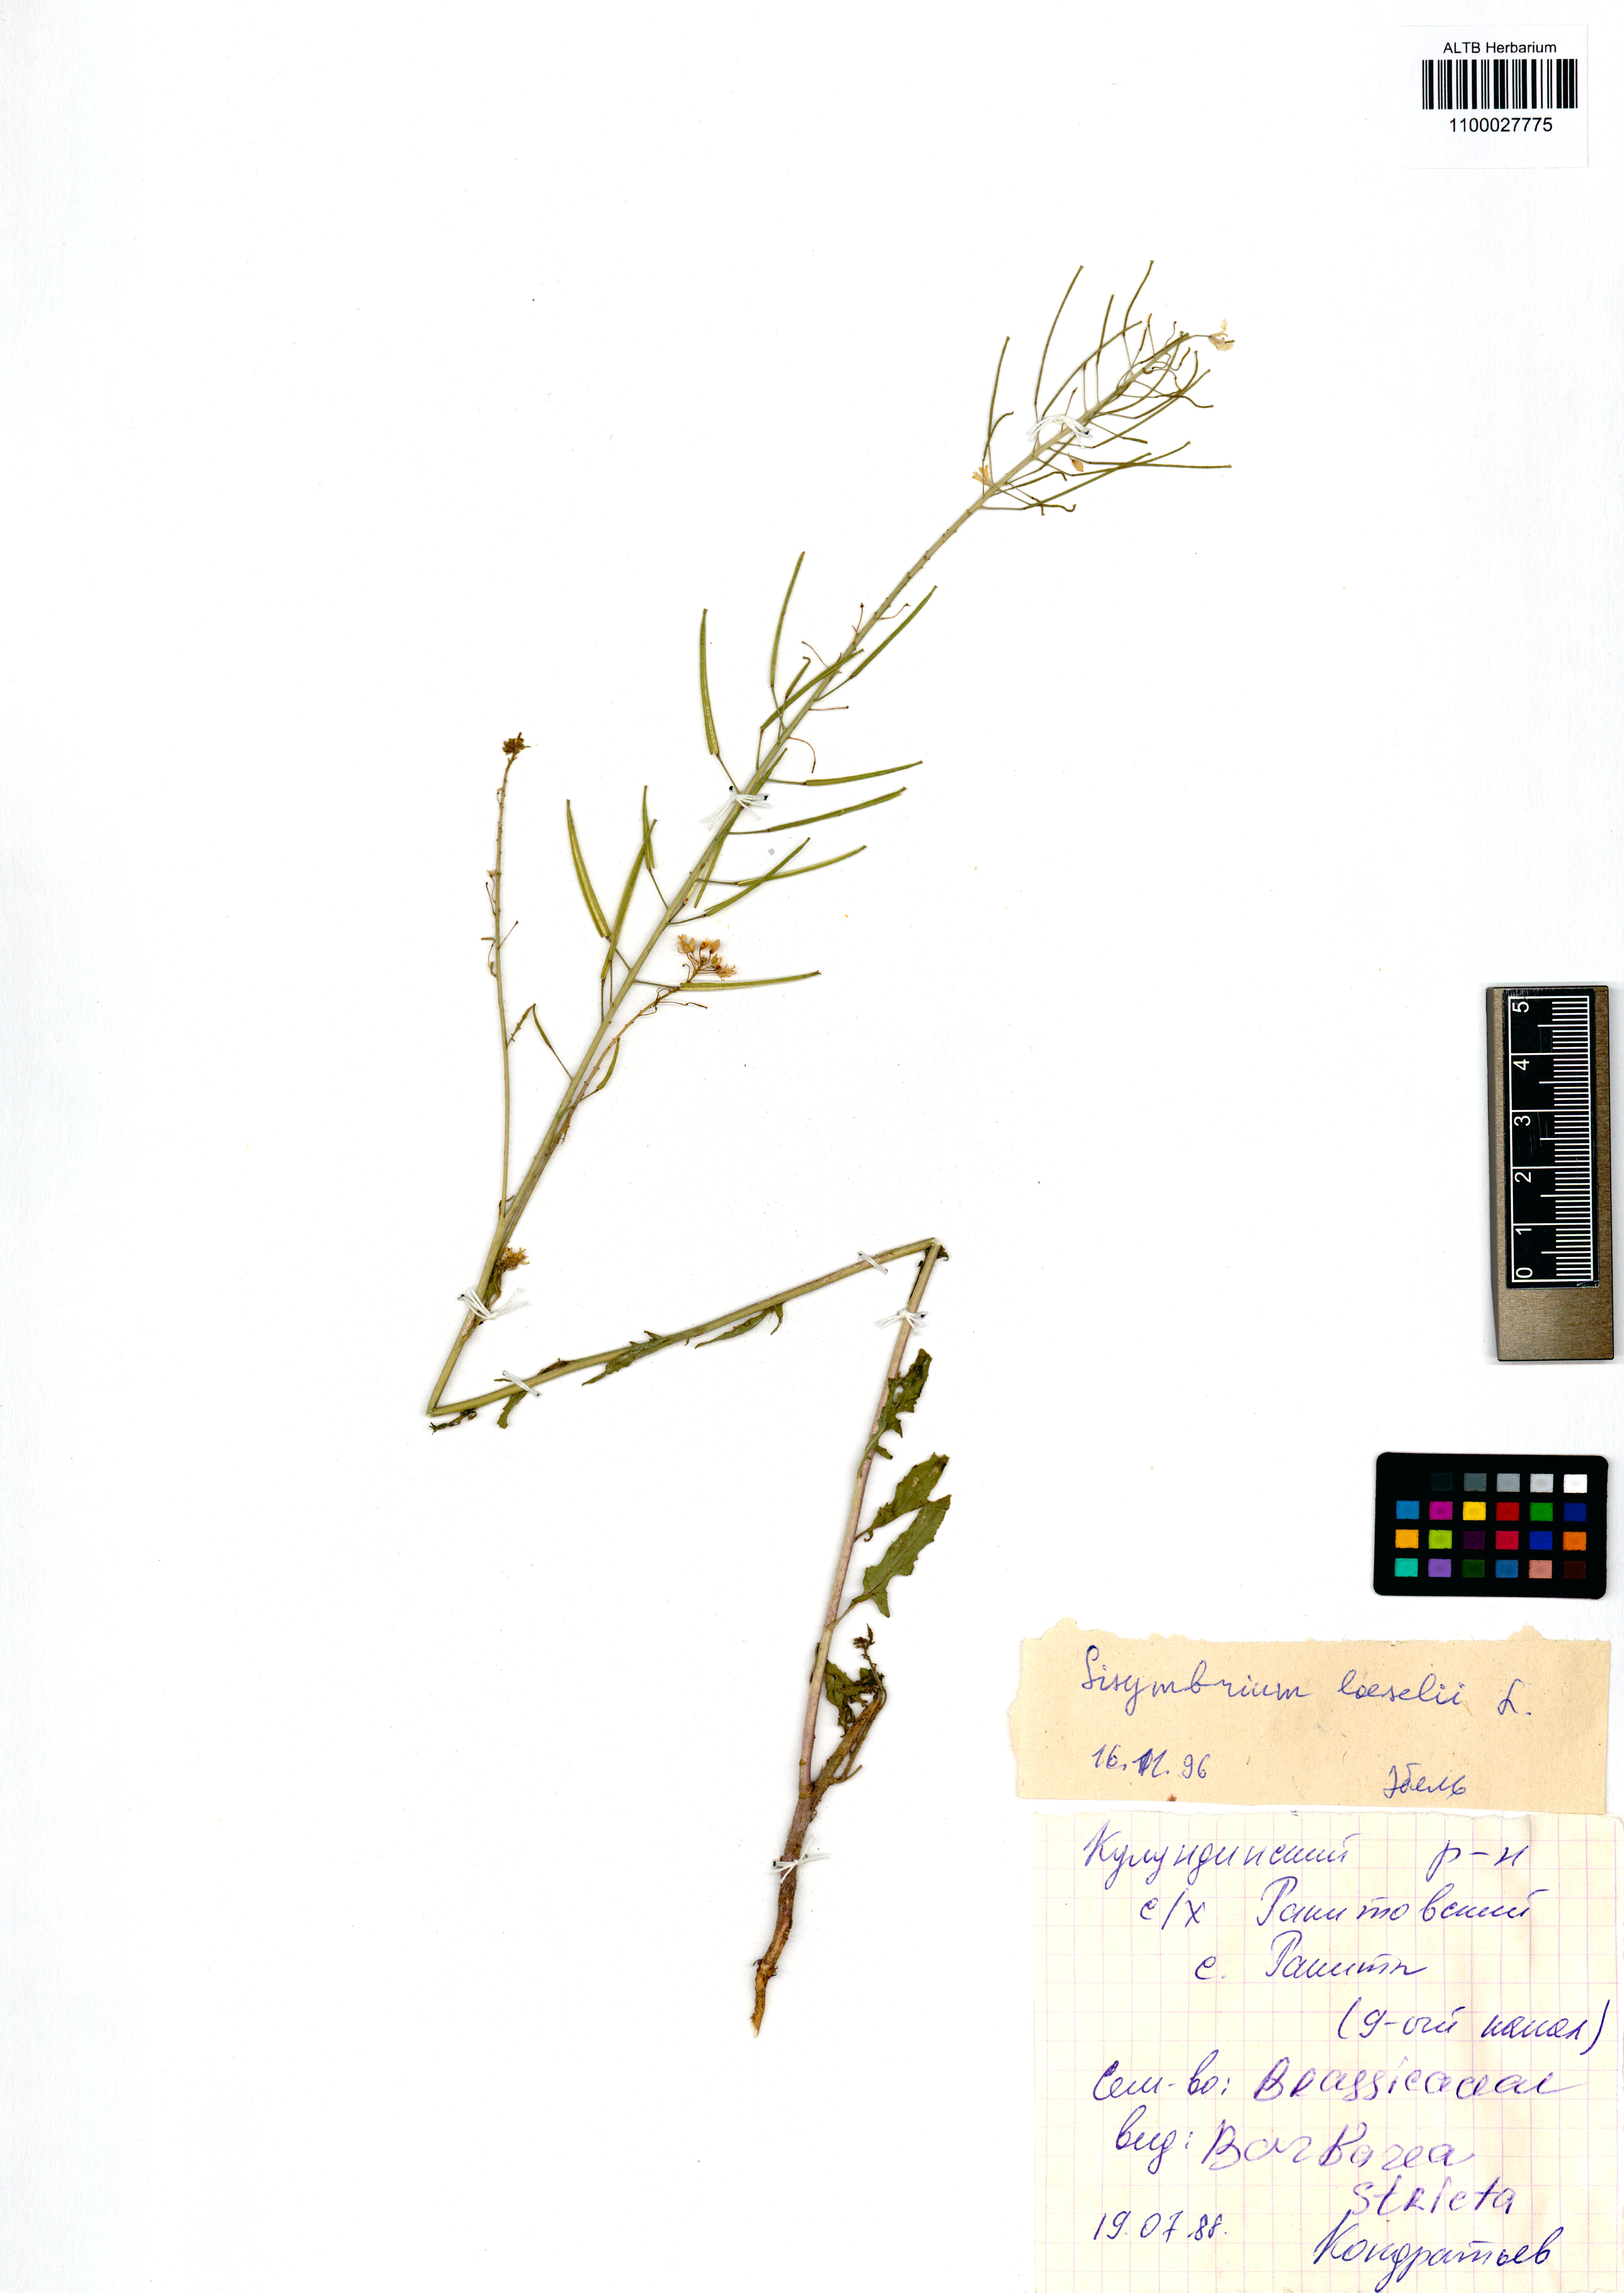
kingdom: Plantae
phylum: Tracheophyta
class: Magnoliopsida
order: Brassicales
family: Brassicaceae
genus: Sisymbrium
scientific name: Sisymbrium loeselii
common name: False london-rocket
